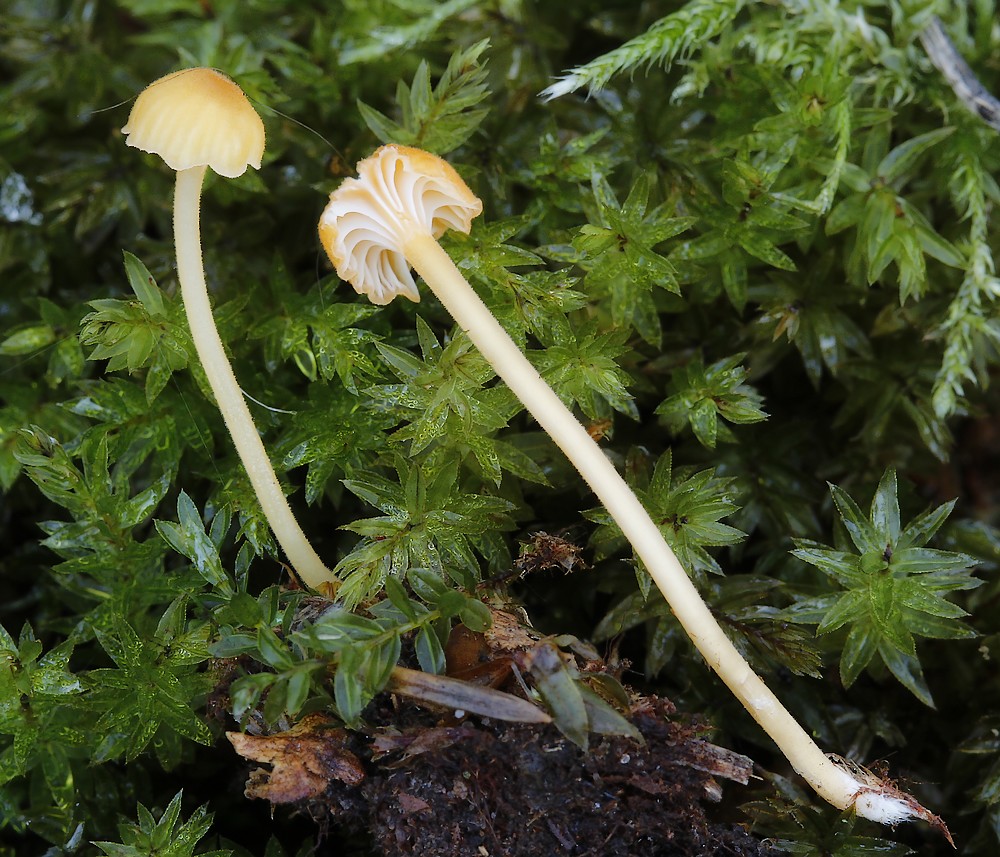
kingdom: Fungi
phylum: Basidiomycota
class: Agaricomycetes
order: Hymenochaetales
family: Rickenellaceae
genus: Rickenella
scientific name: Rickenella fibula
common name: orange mosnavlehat
